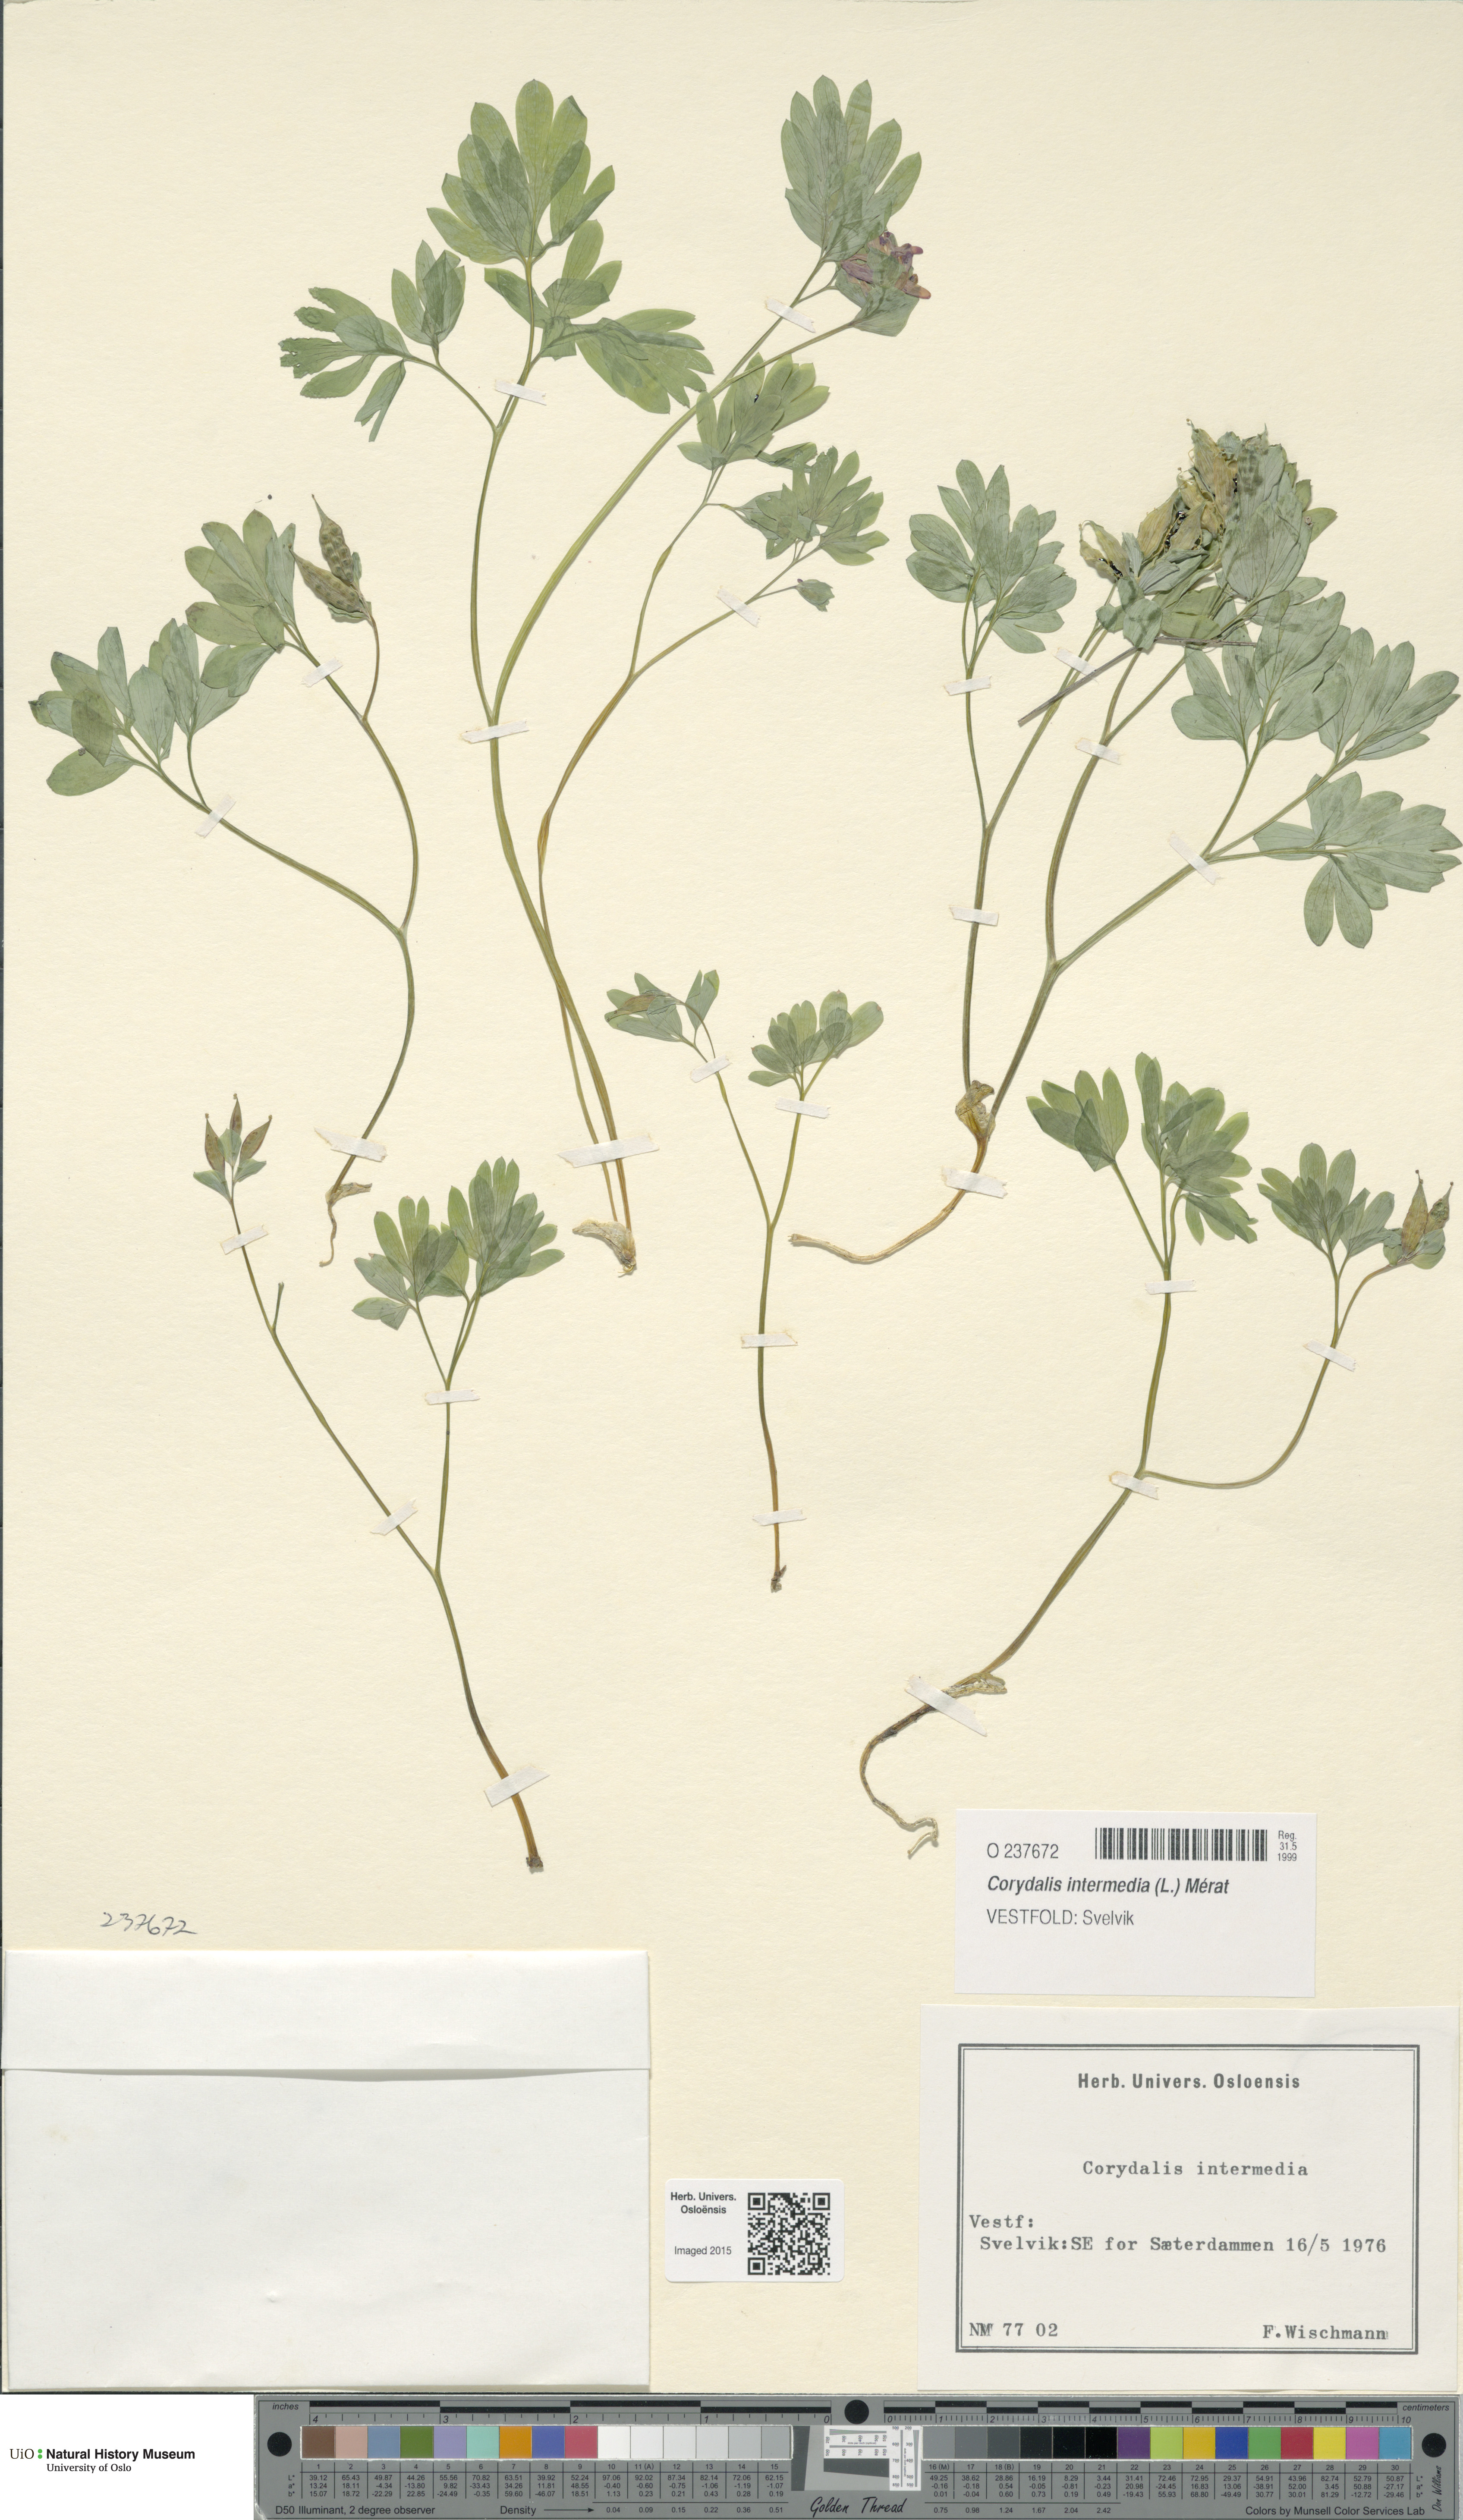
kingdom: Plantae
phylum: Tracheophyta
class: Magnoliopsida
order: Ranunculales
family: Papaveraceae
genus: Corydalis
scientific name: Corydalis intermedia
